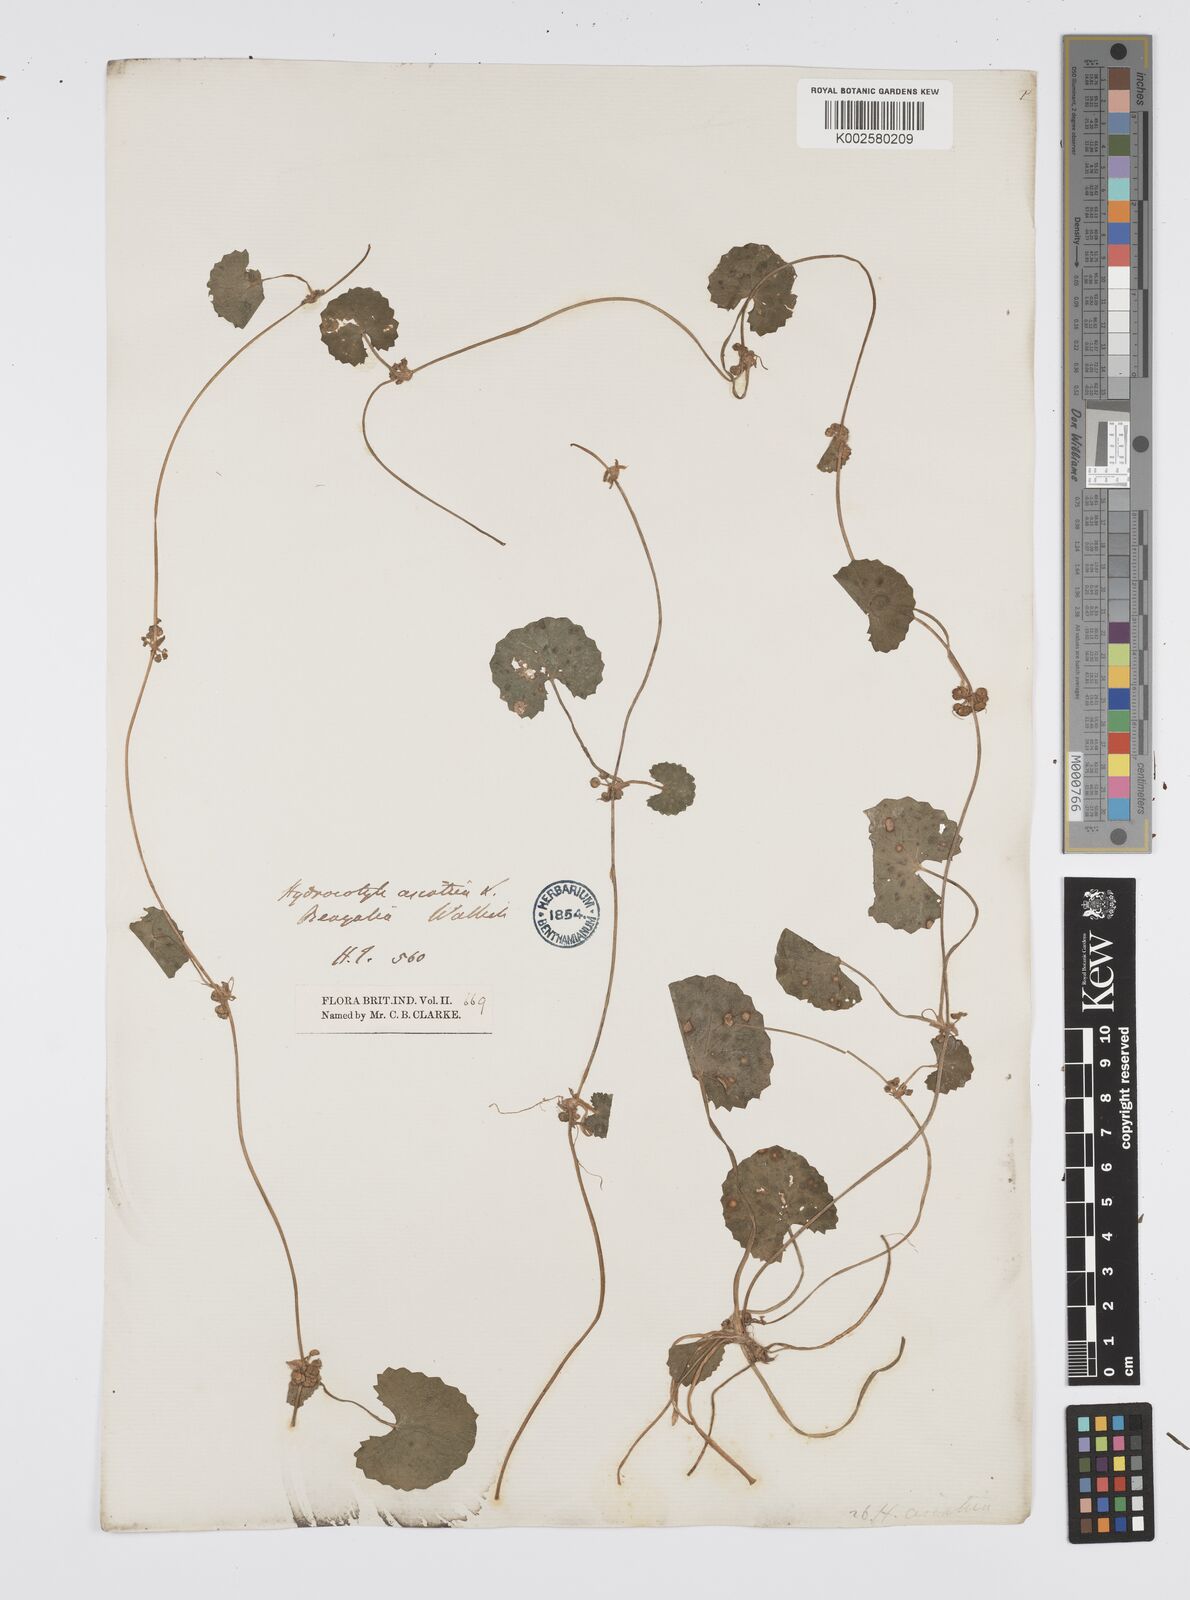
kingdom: Plantae
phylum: Tracheophyta
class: Magnoliopsida
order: Apiales
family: Apiaceae
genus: Centella
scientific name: Centella asiatica
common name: Spadeleaf
